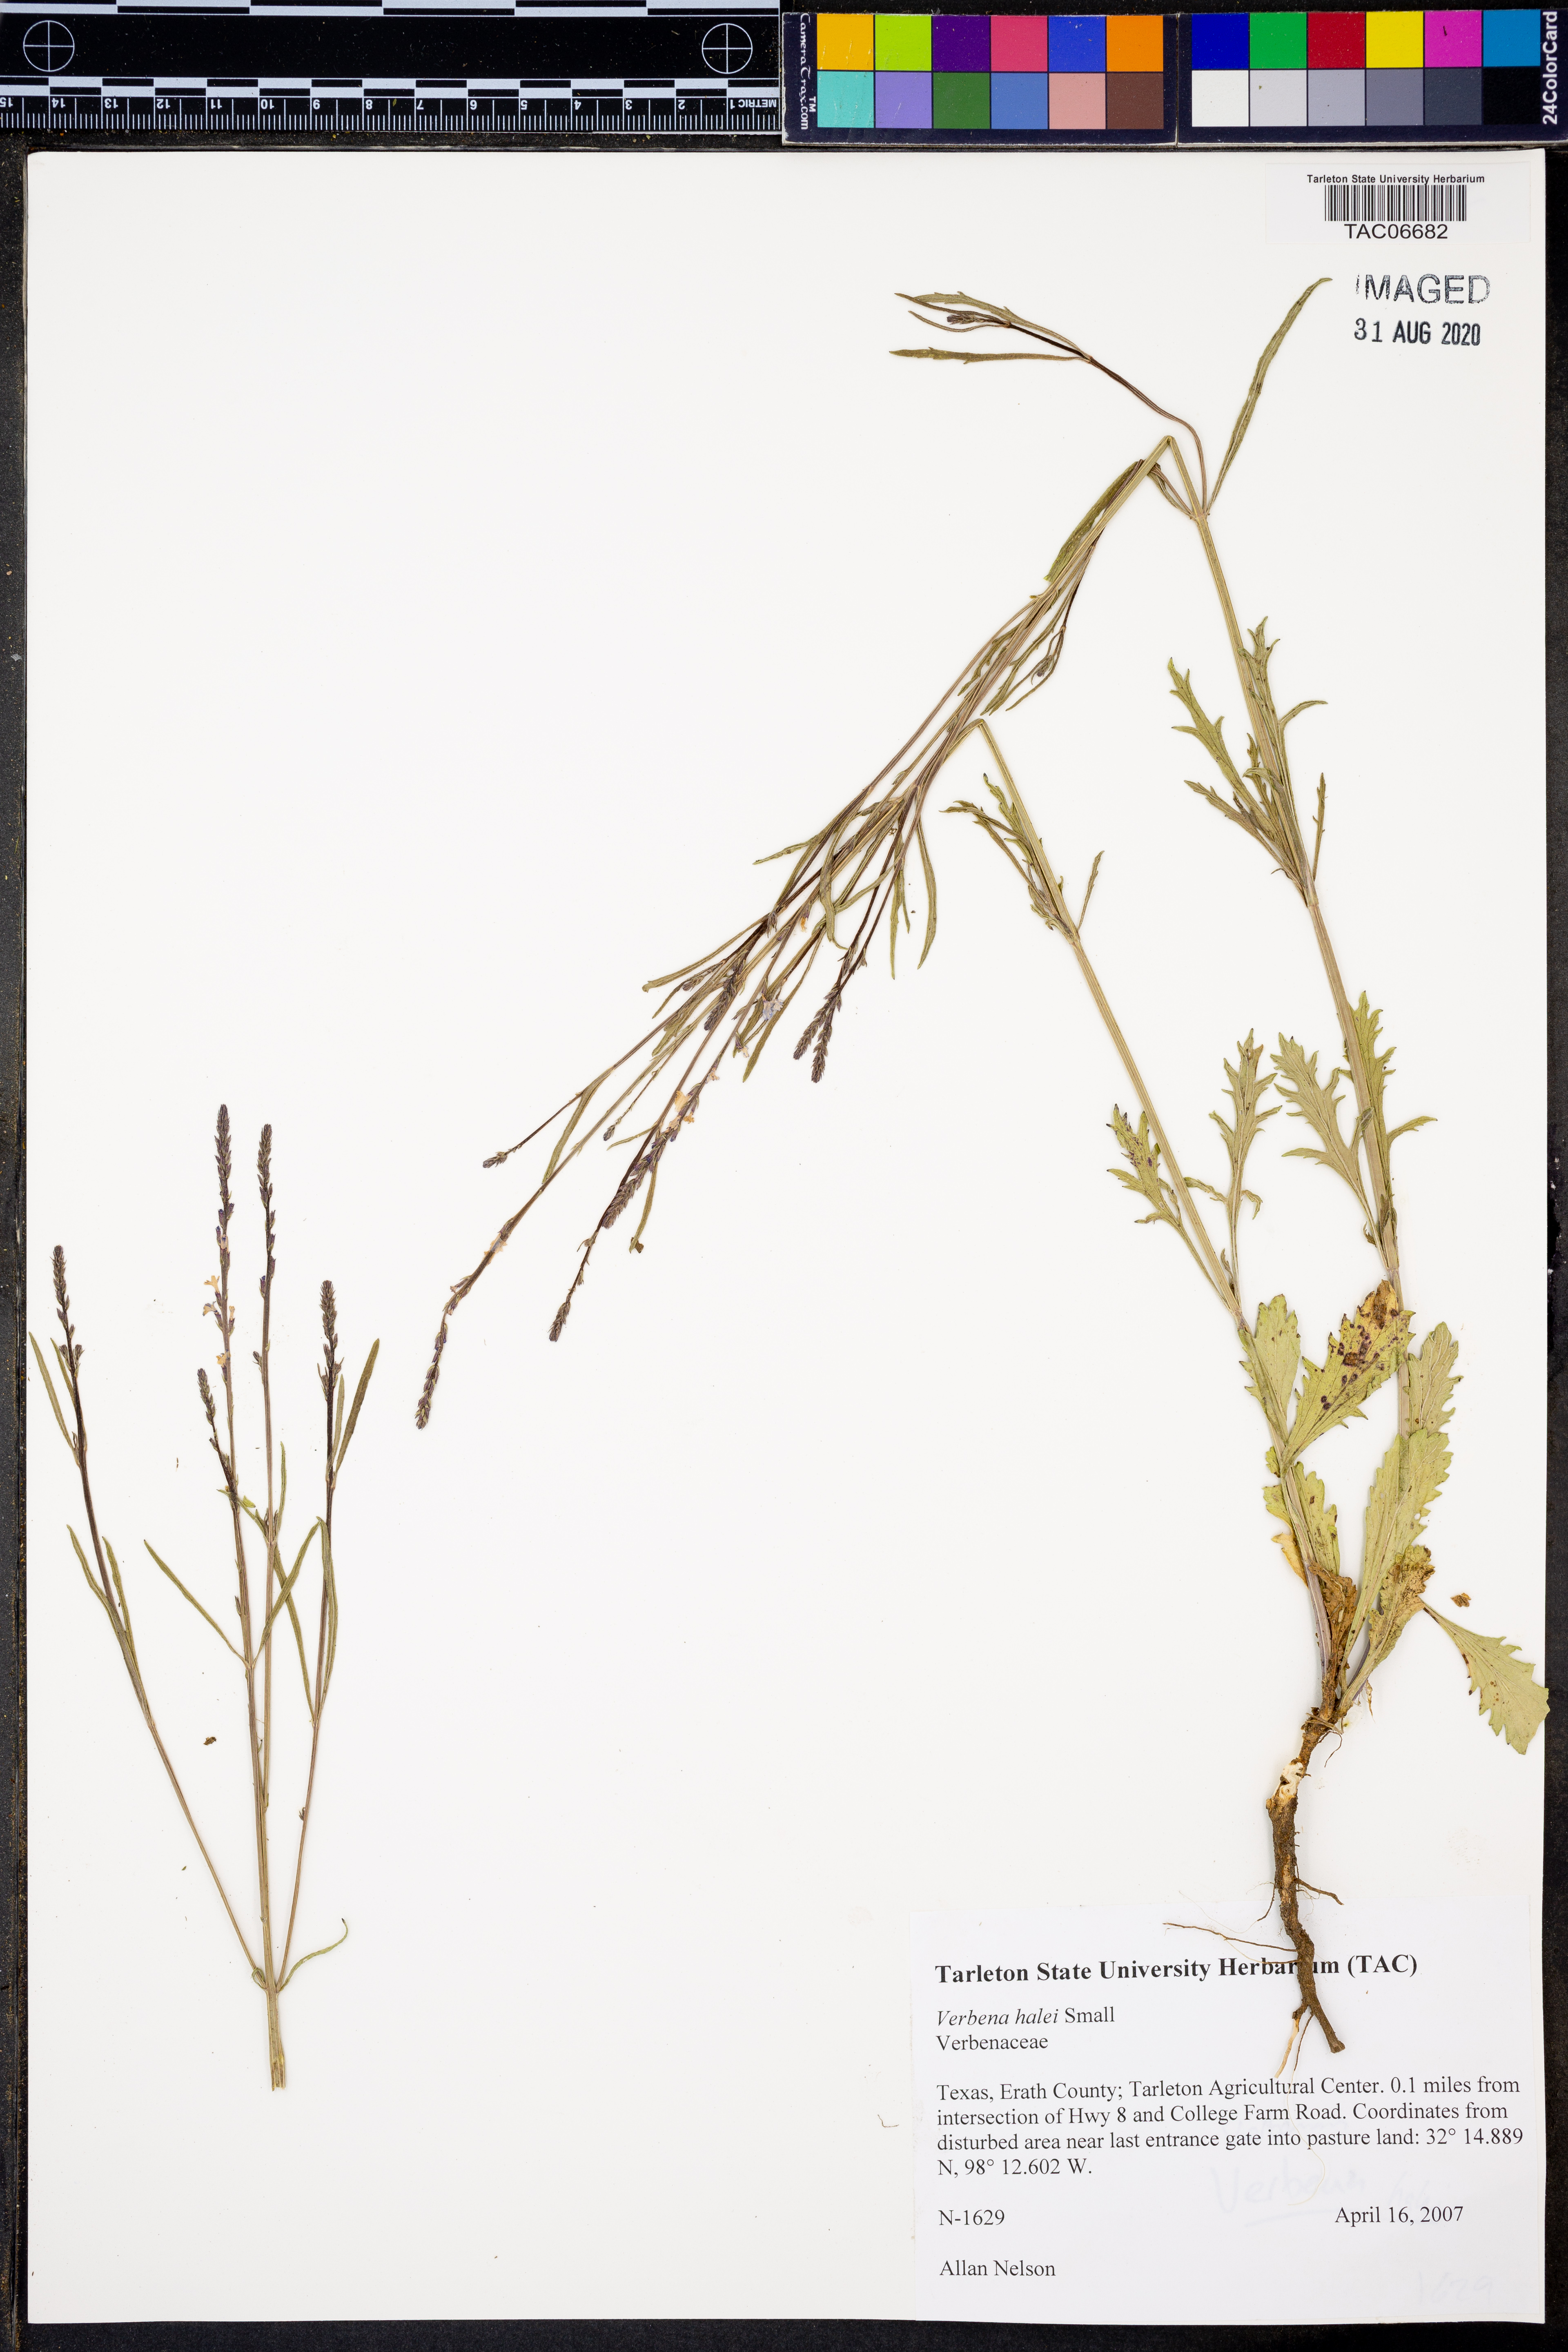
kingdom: Plantae
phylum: Tracheophyta
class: Magnoliopsida
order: Lamiales
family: Verbenaceae
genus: Verbena
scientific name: Verbena halei
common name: Texas vervain
